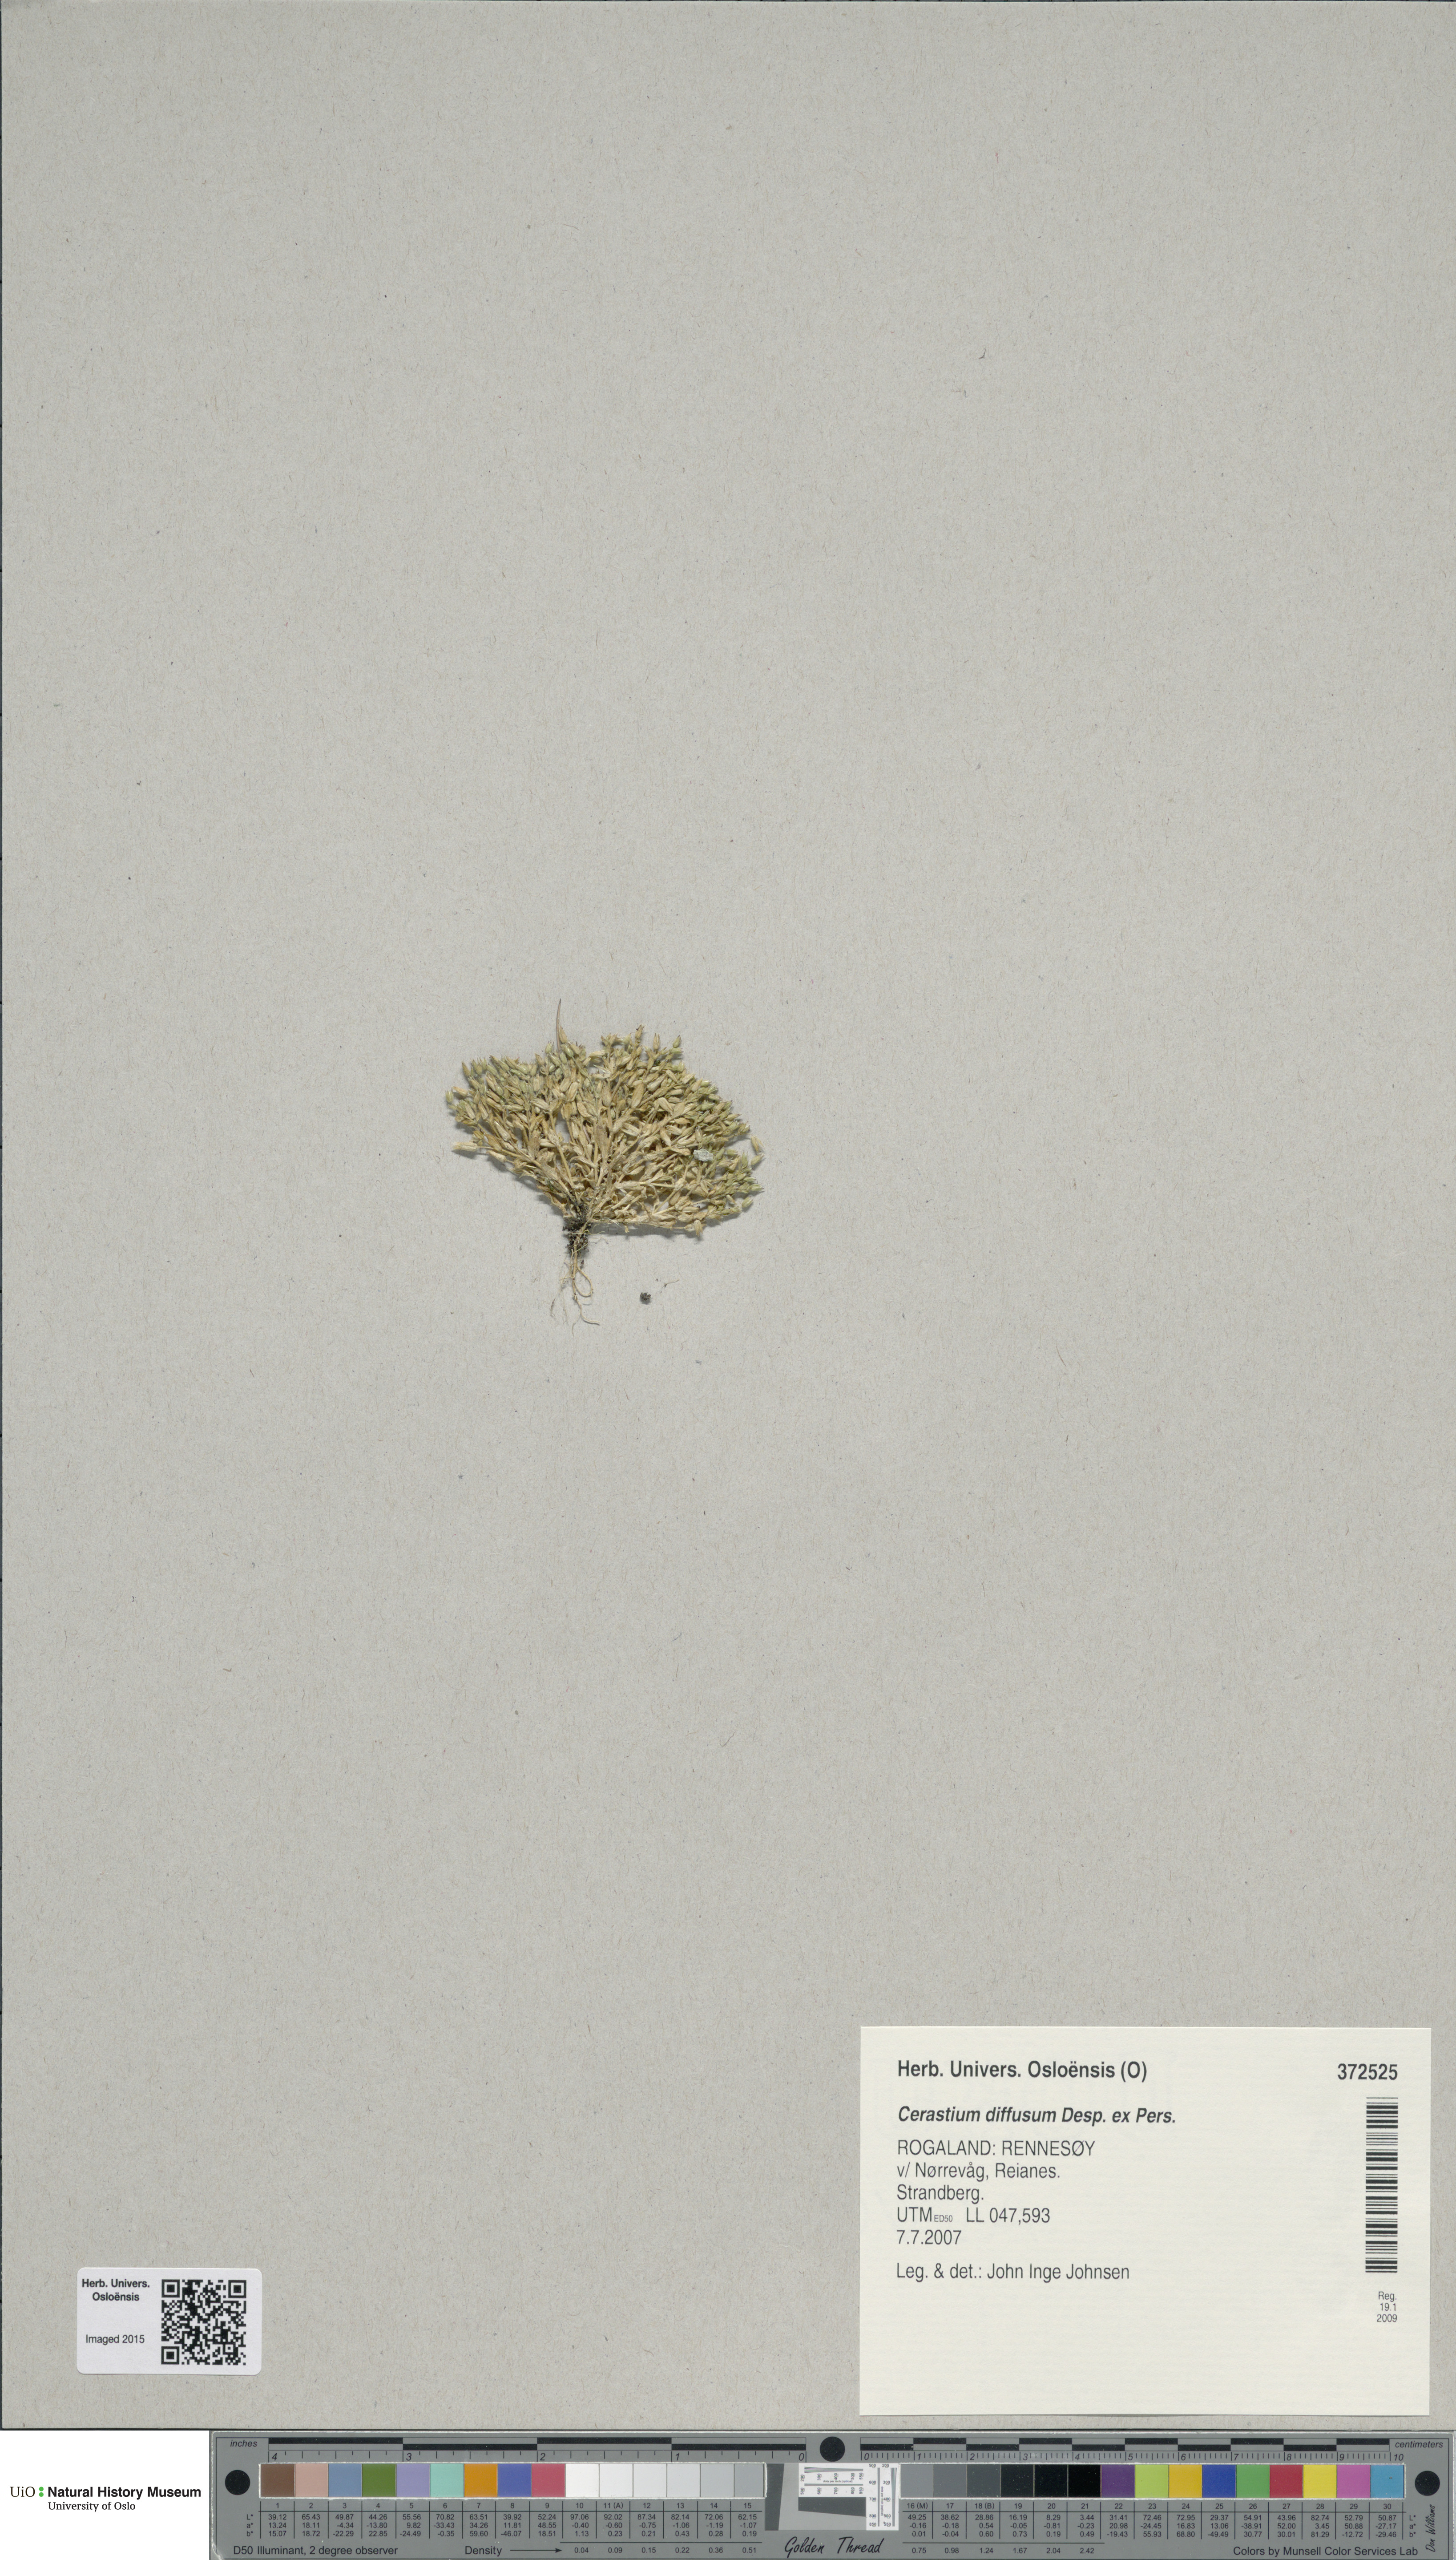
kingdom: Plantae
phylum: Tracheophyta
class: Magnoliopsida
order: Caryophyllales
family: Caryophyllaceae
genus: Cerastium
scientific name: Cerastium diffusum
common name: Fourstamen chickweed
